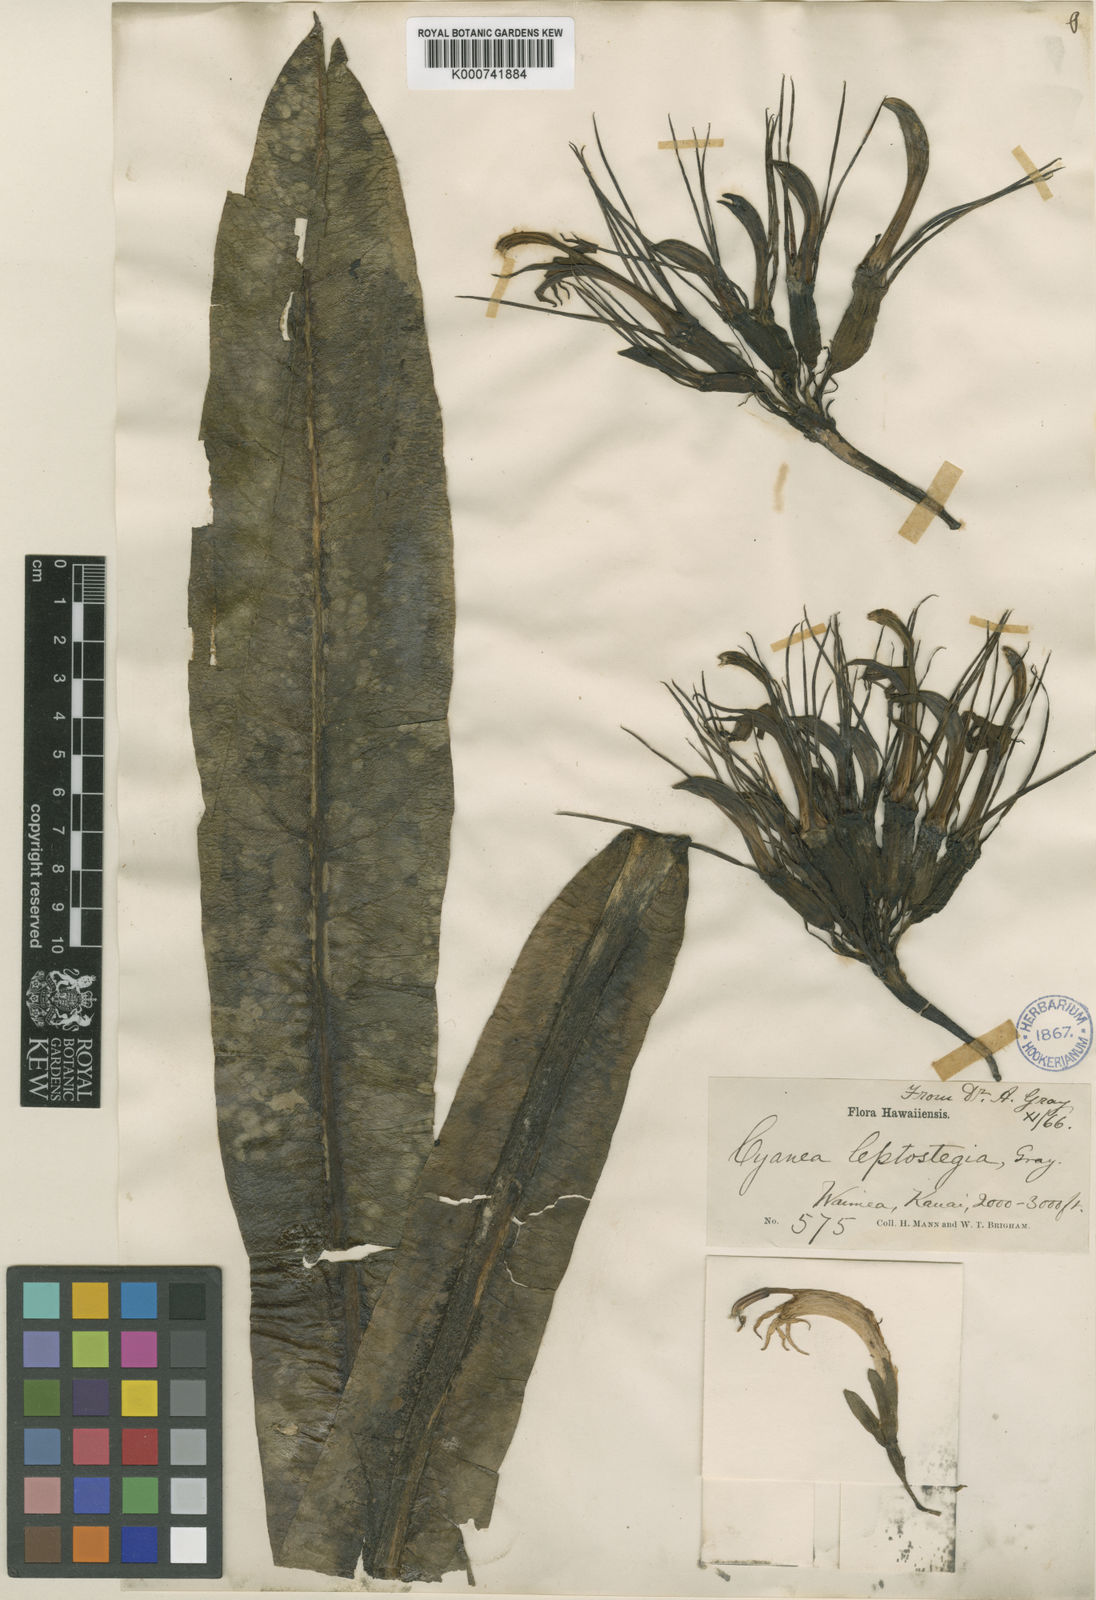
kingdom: Plantae
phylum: Tracheophyta
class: Magnoliopsida
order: Asterales
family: Campanulaceae
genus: Cyanea
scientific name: Cyanea leptostegia
